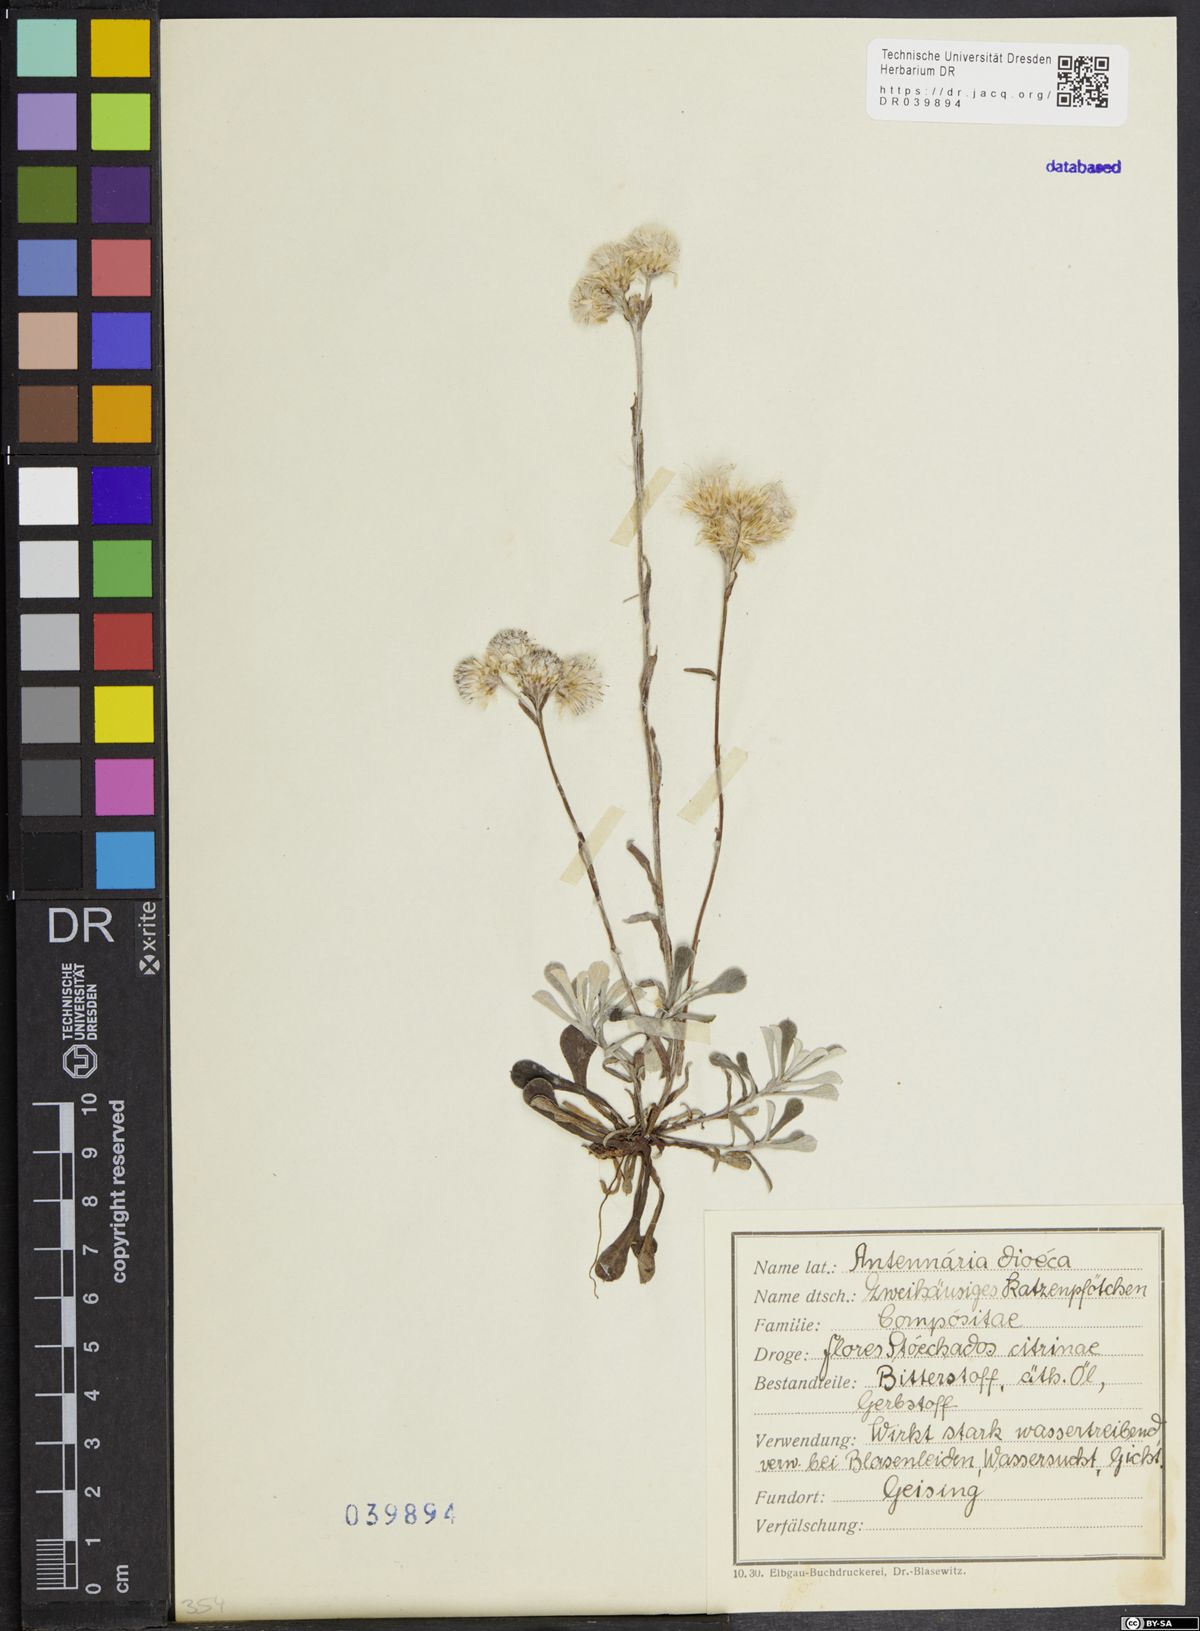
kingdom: Plantae
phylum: Tracheophyta
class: Magnoliopsida
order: Asterales
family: Asteraceae
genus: Antennaria
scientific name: Antennaria dioica
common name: Mountain everlasting
